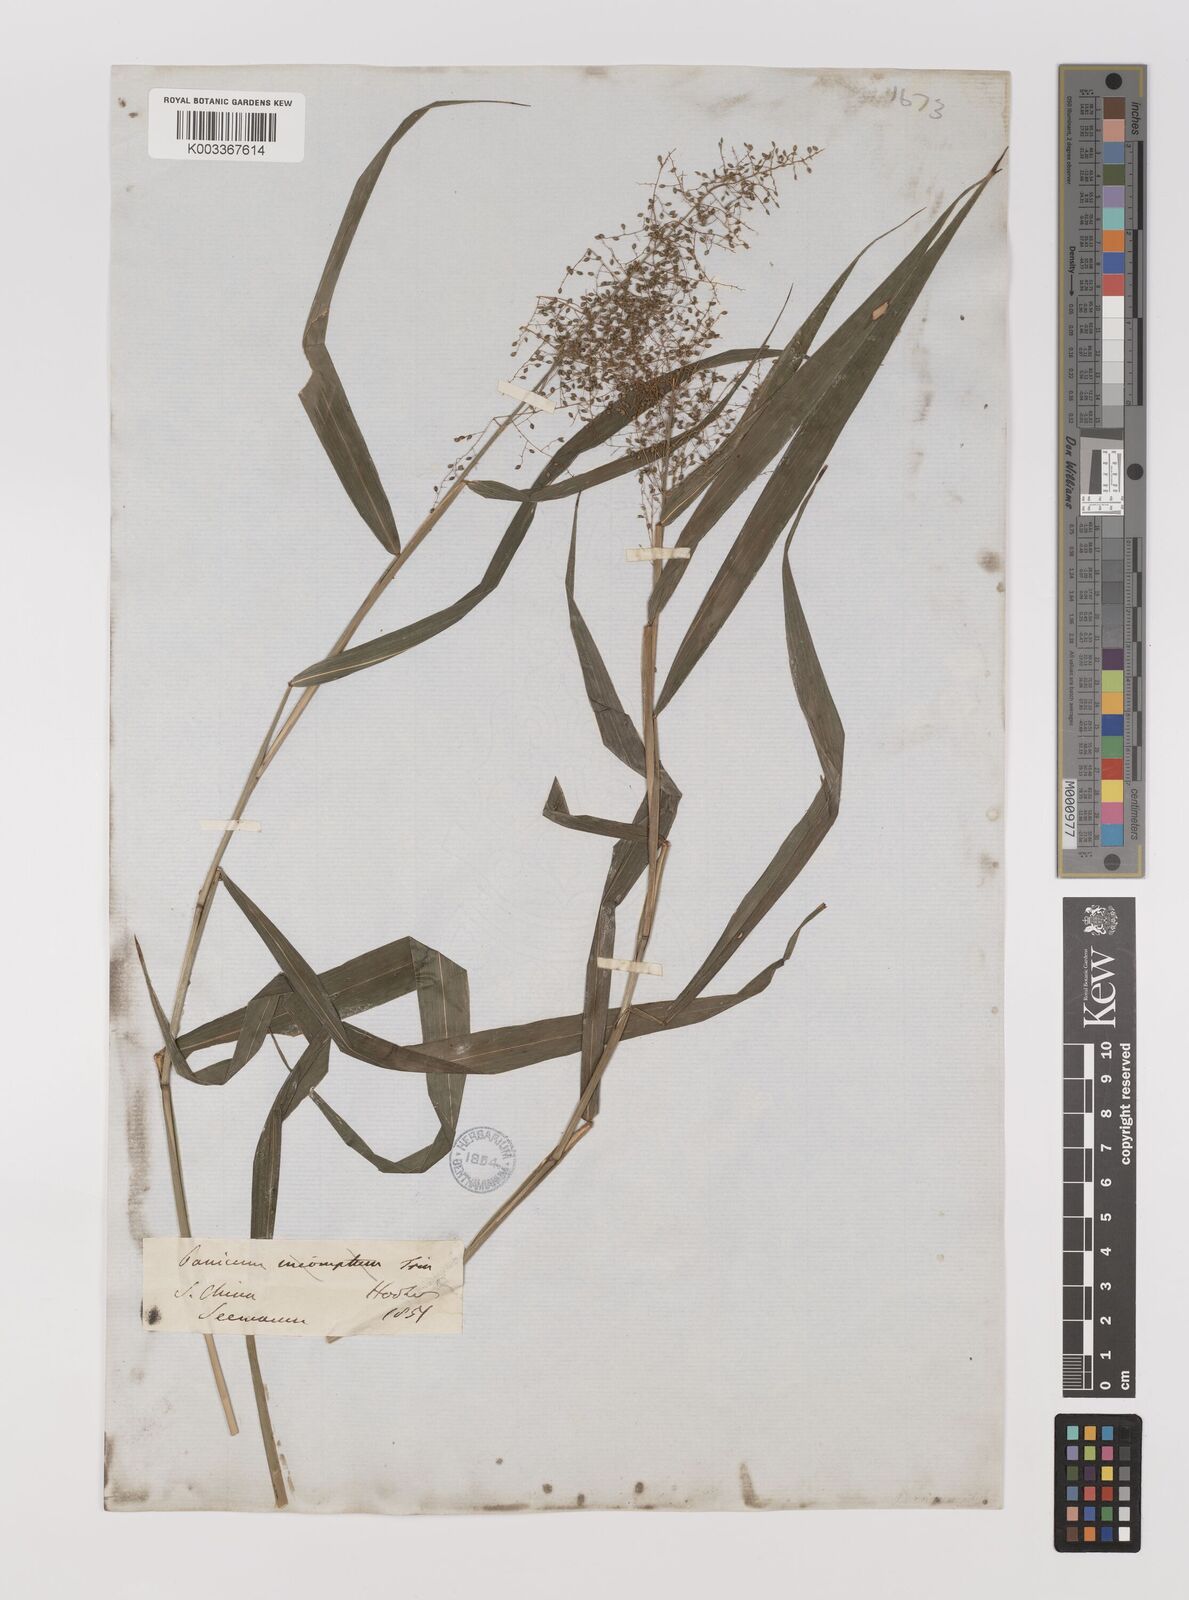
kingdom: Plantae
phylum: Tracheophyta
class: Liliopsida
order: Poales
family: Poaceae
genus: Panicum
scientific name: Panicum incomtum
